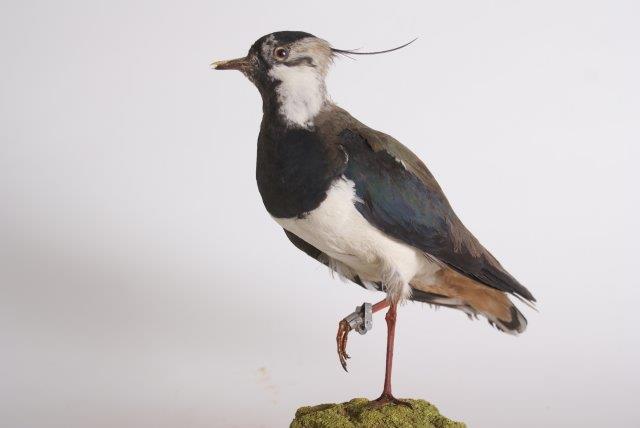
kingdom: Animalia
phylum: Chordata
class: Aves
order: Charadriiformes
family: Charadriidae
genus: Vanellus
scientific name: Vanellus vanellus
